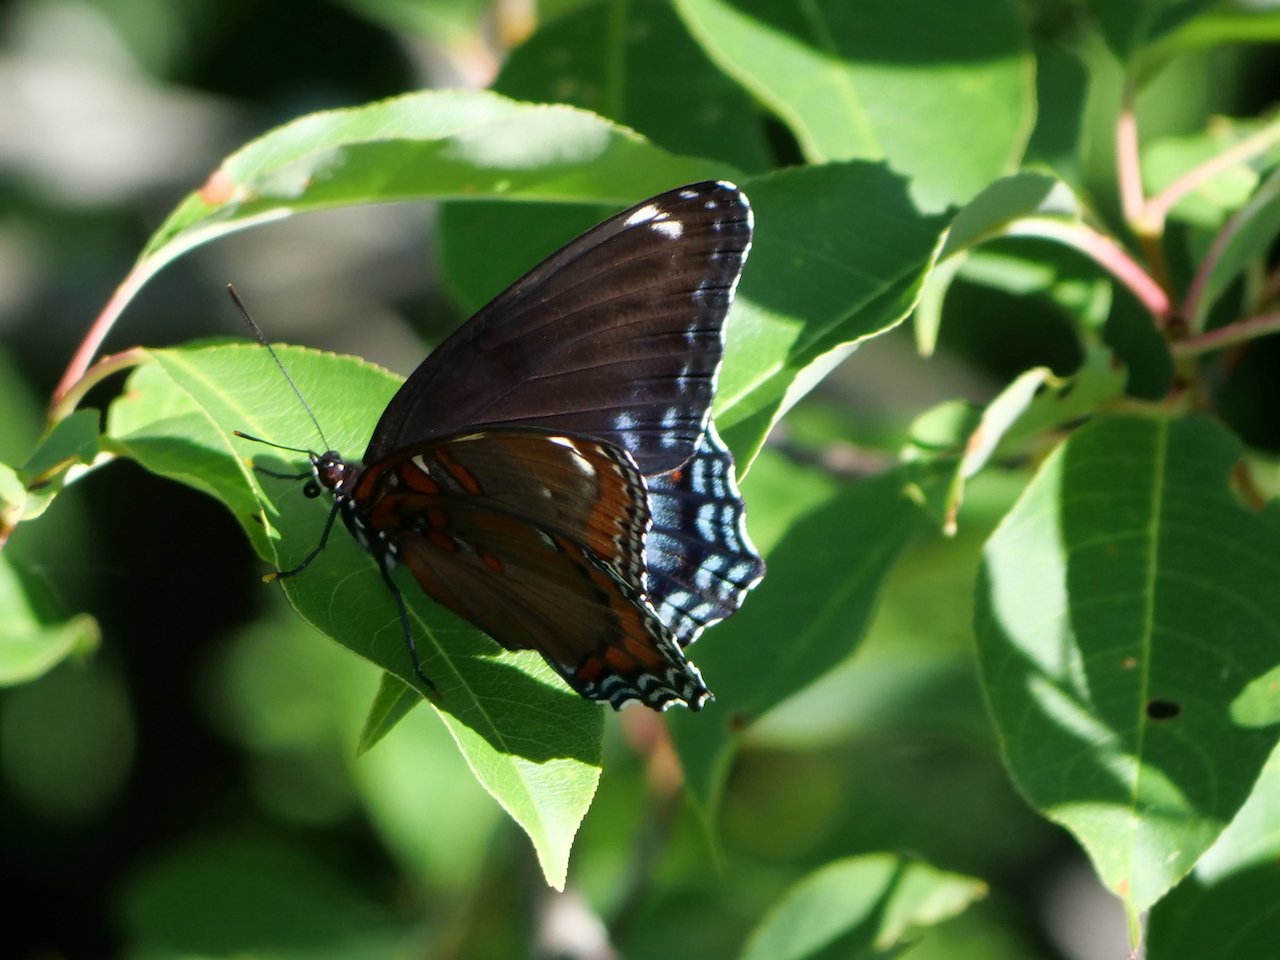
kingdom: Animalia
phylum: Arthropoda
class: Insecta
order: Lepidoptera
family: Nymphalidae
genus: Limenitis
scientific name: Limenitis arthemis
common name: Red-spotted Admiral
